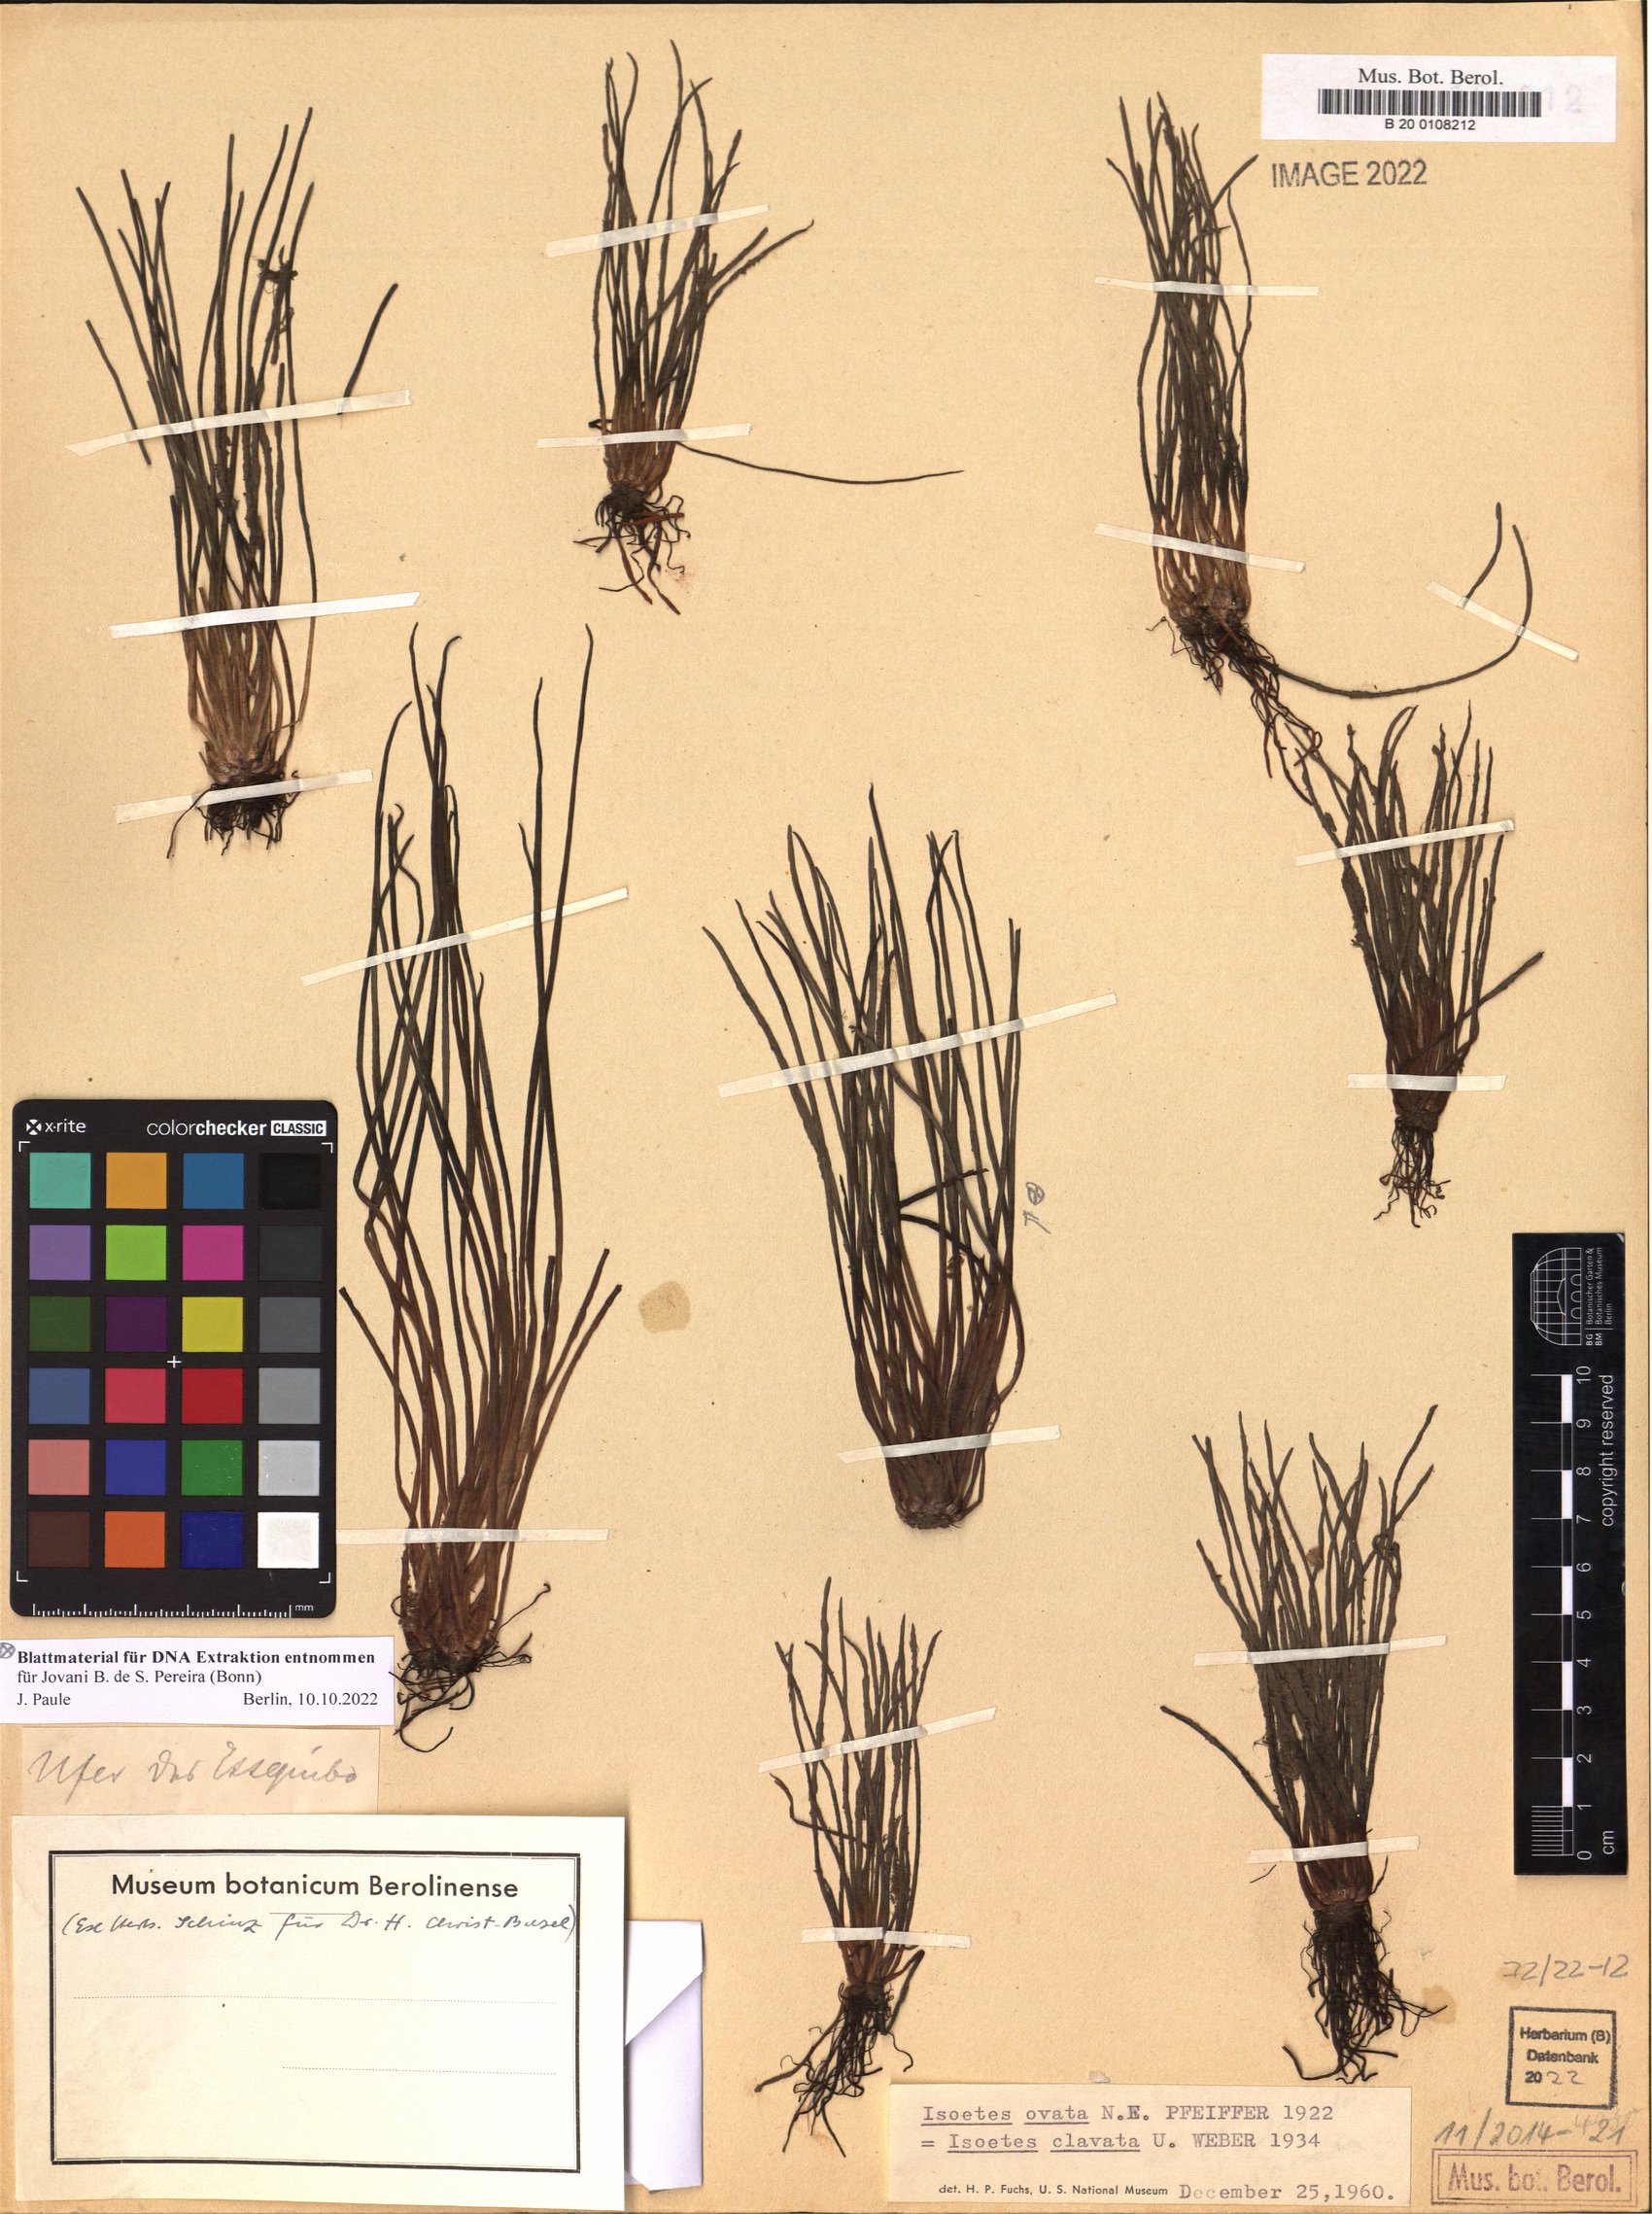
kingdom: Plantae
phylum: Tracheophyta
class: Lycopodiopsida
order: Isoetales
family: Isoetaceae
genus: Isoetes
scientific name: Isoetes ovata
